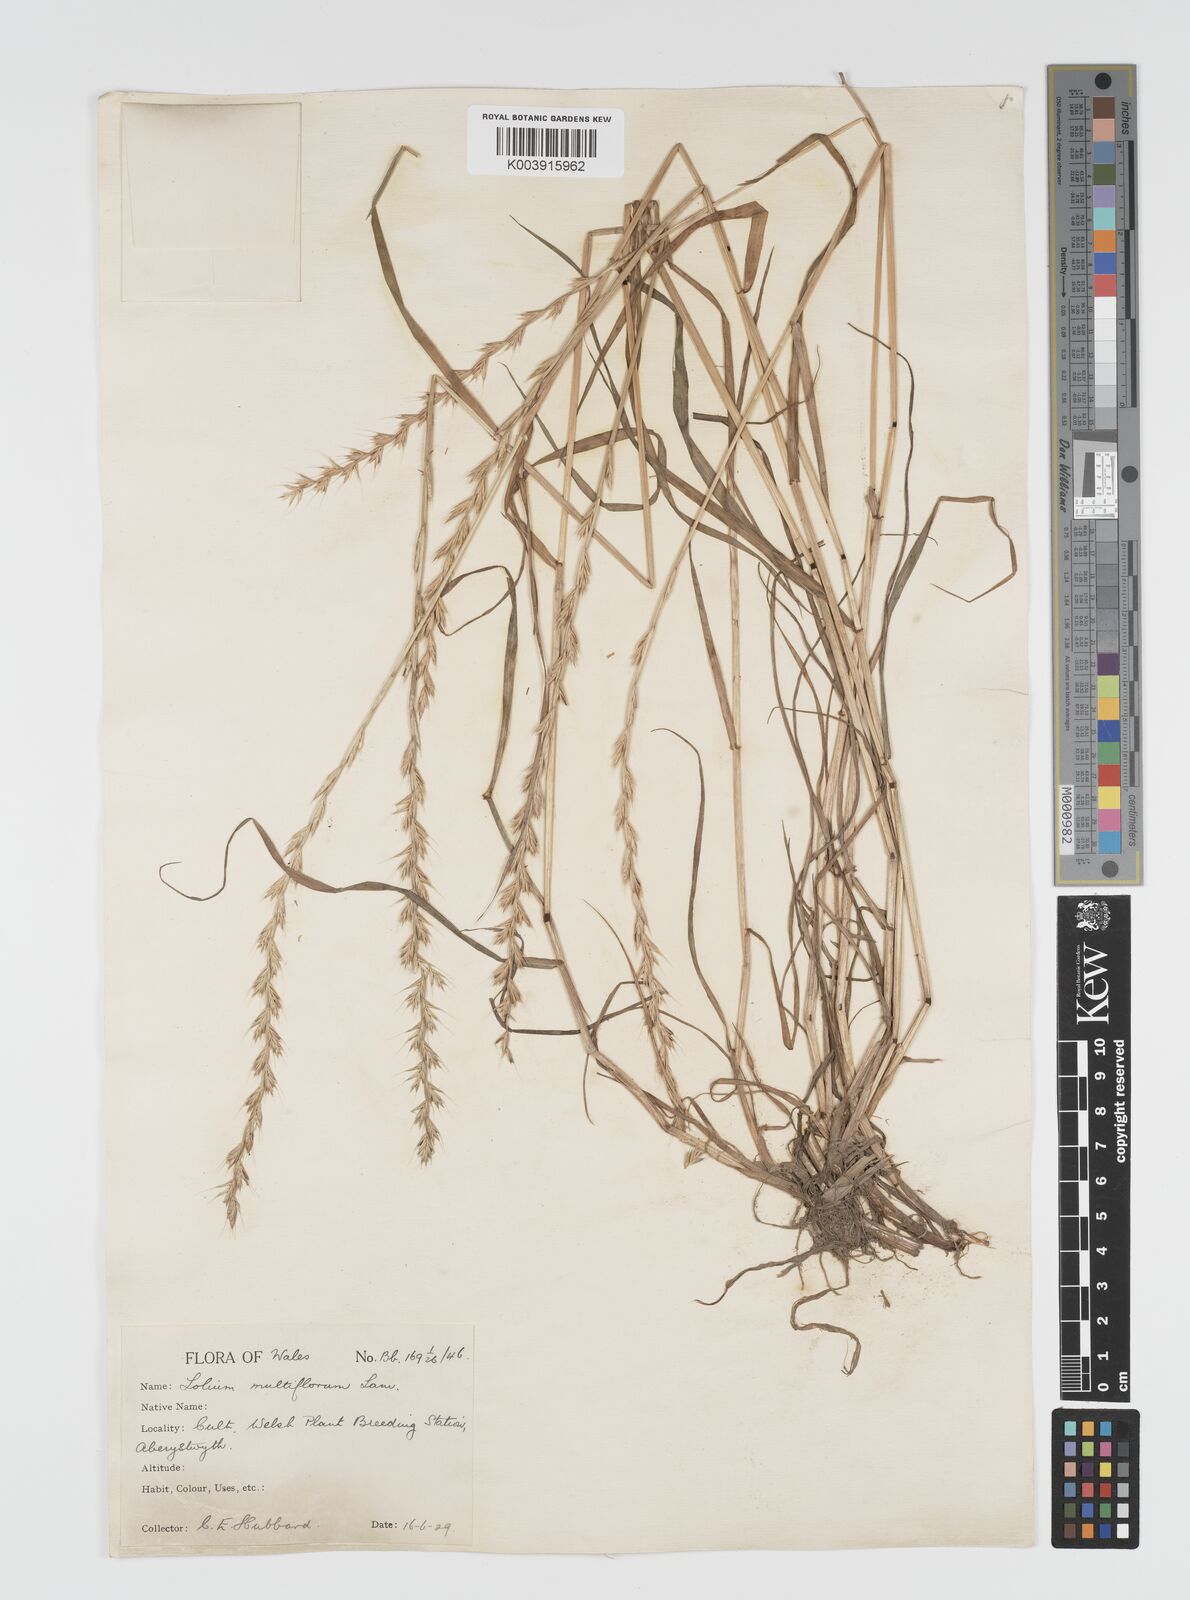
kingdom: Plantae
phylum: Tracheophyta
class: Liliopsida
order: Poales
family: Poaceae
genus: Lolium
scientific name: Lolium multiflorum
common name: Annual ryegrass
